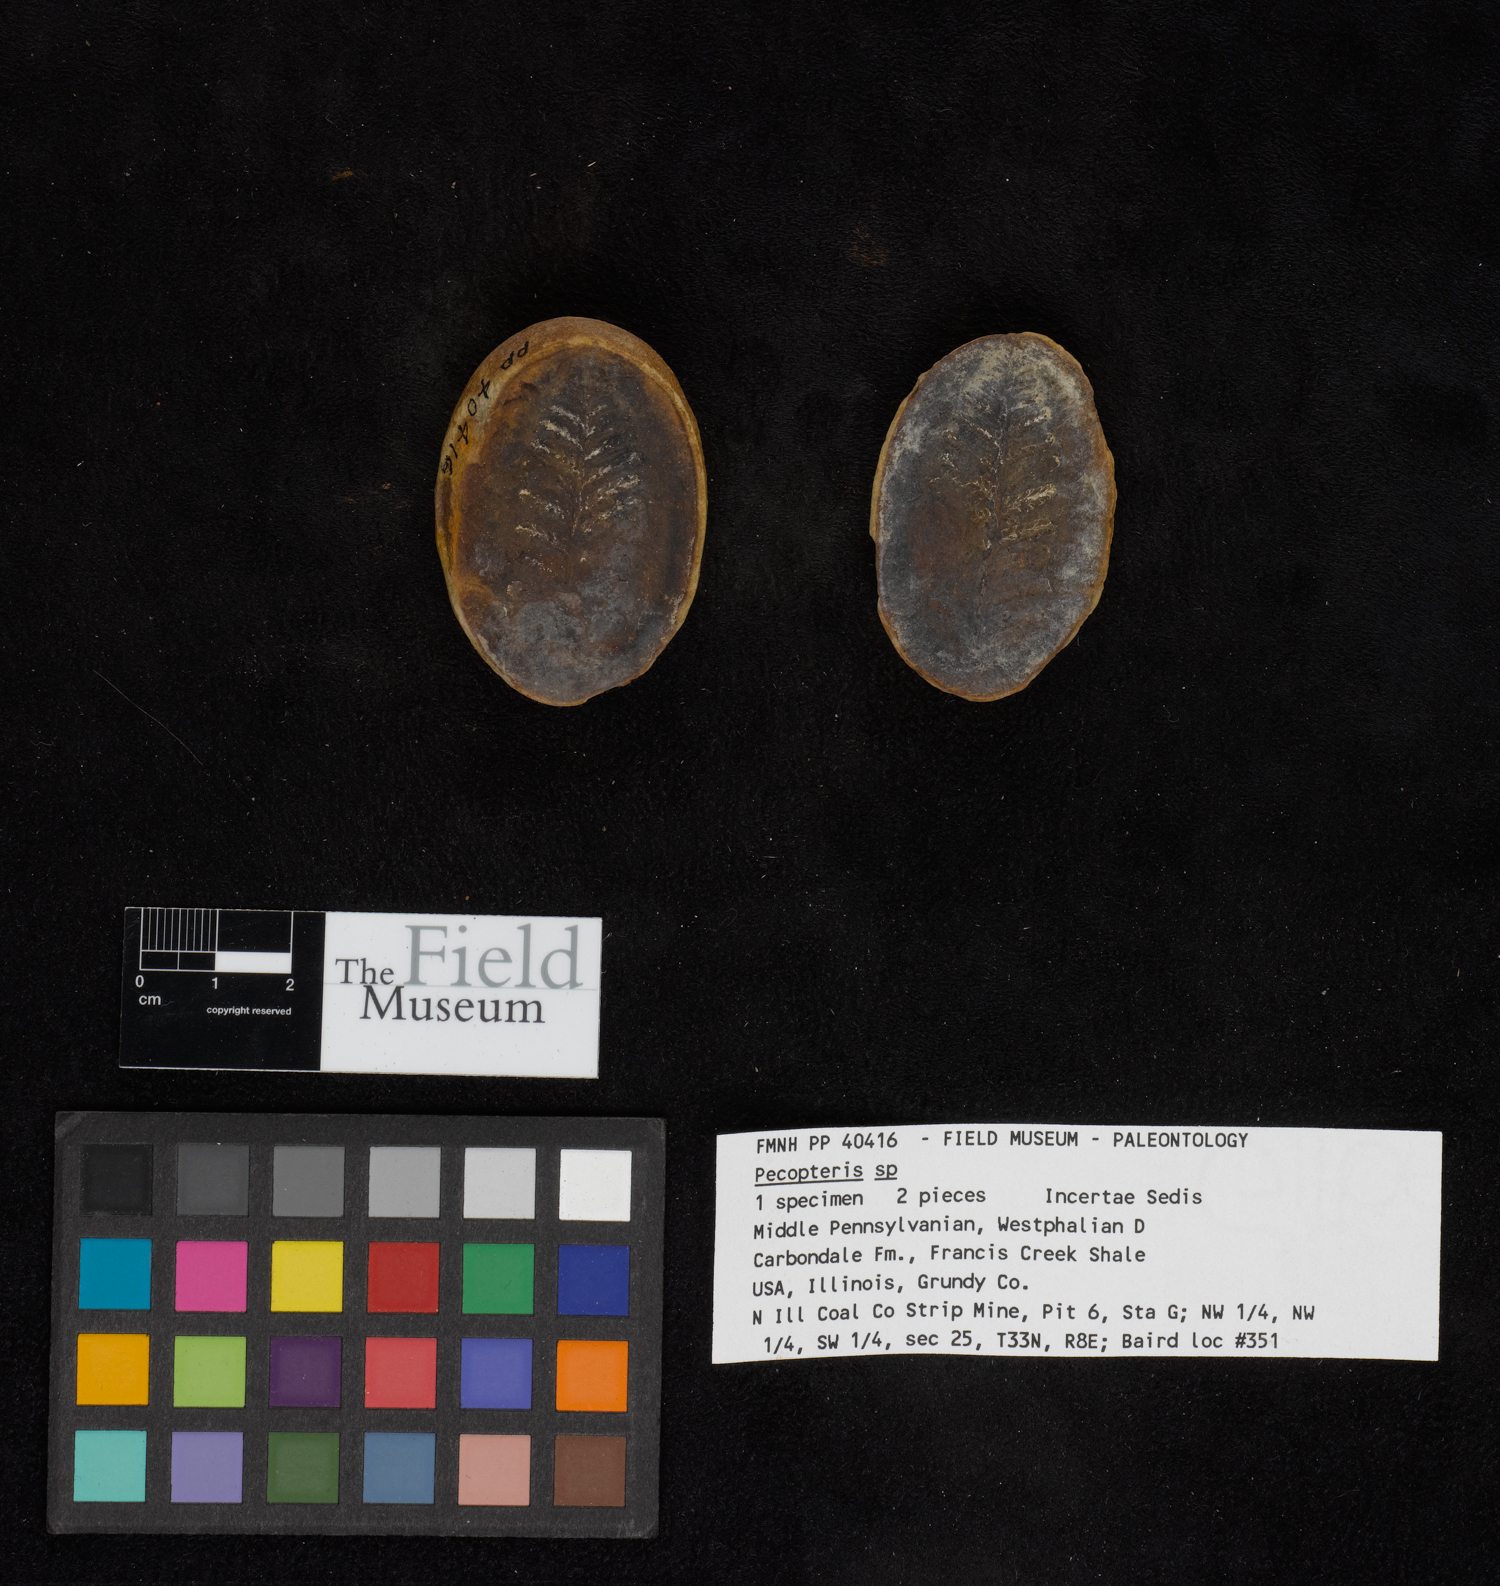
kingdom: Plantae
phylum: Tracheophyta
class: Polypodiopsida
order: Marattiales
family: Asterothecaceae
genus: Pecopteris
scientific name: Pecopteris
